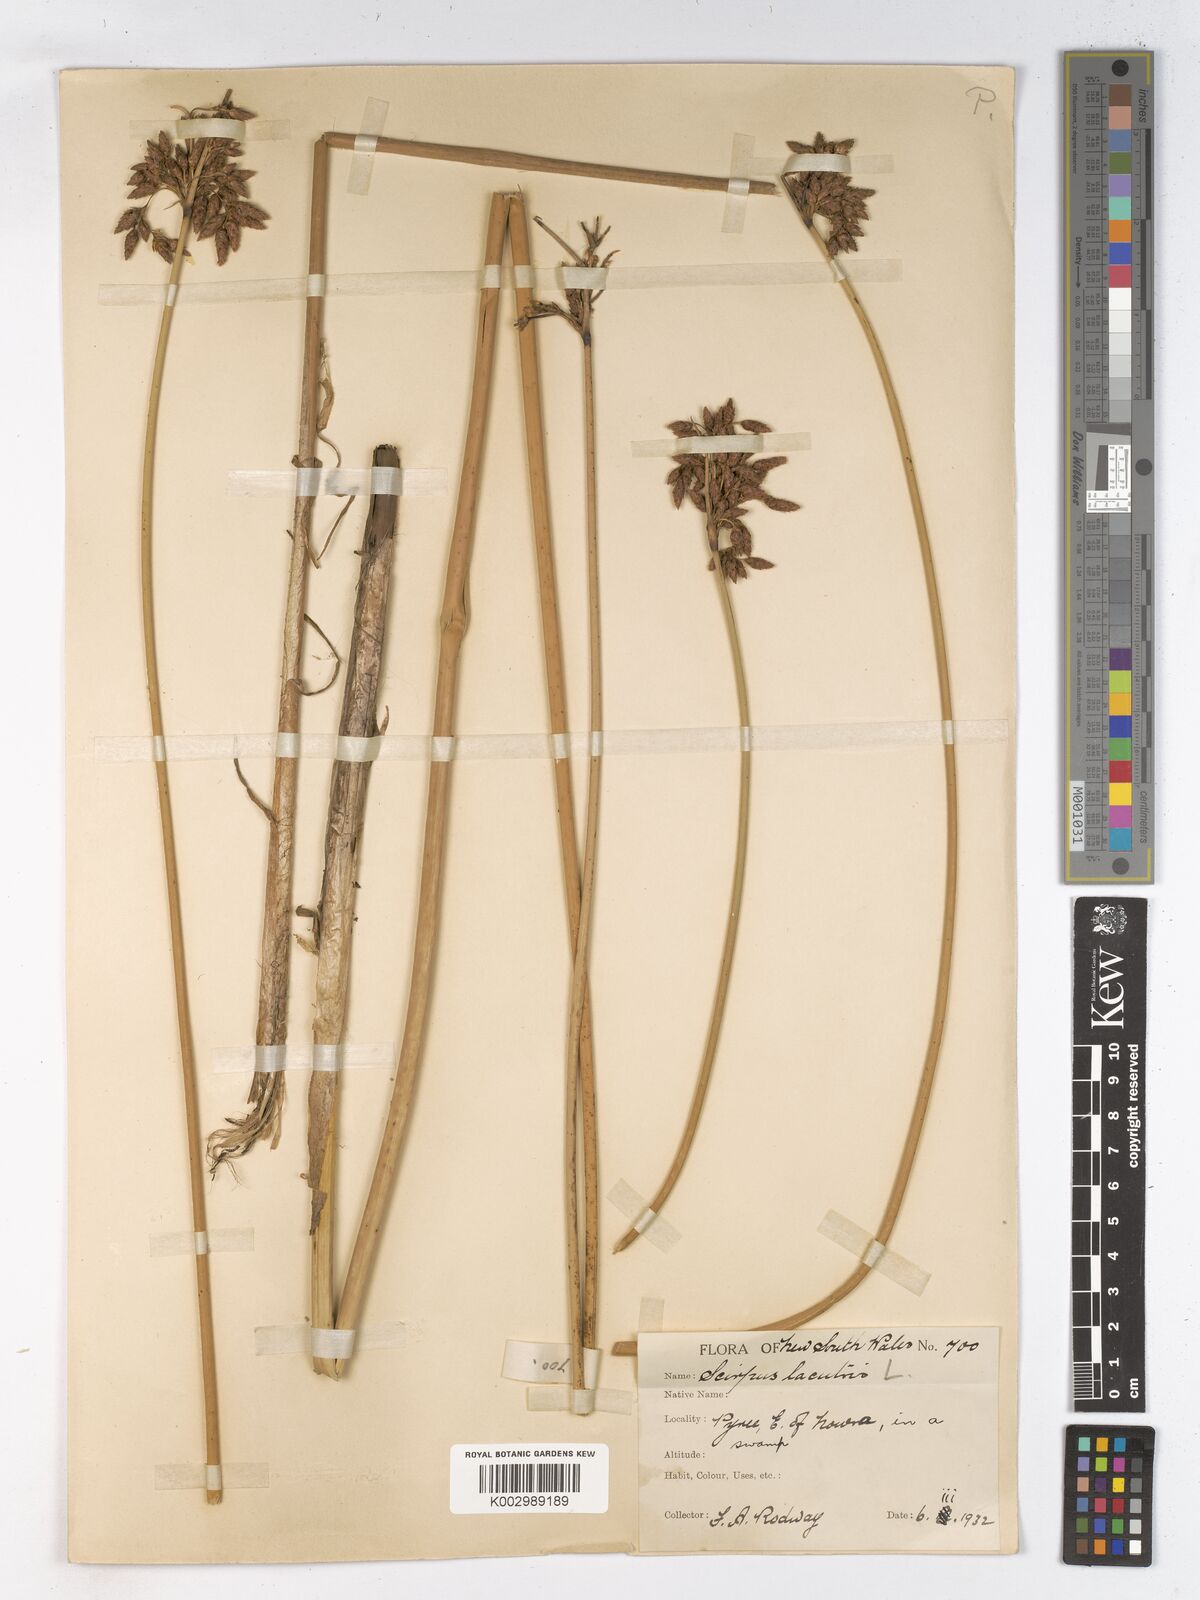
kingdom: Plantae
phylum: Tracheophyta
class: Liliopsida
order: Poales
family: Cyperaceae
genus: Schoenoplectus
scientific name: Schoenoplectus lacustris
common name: Common club-rush
